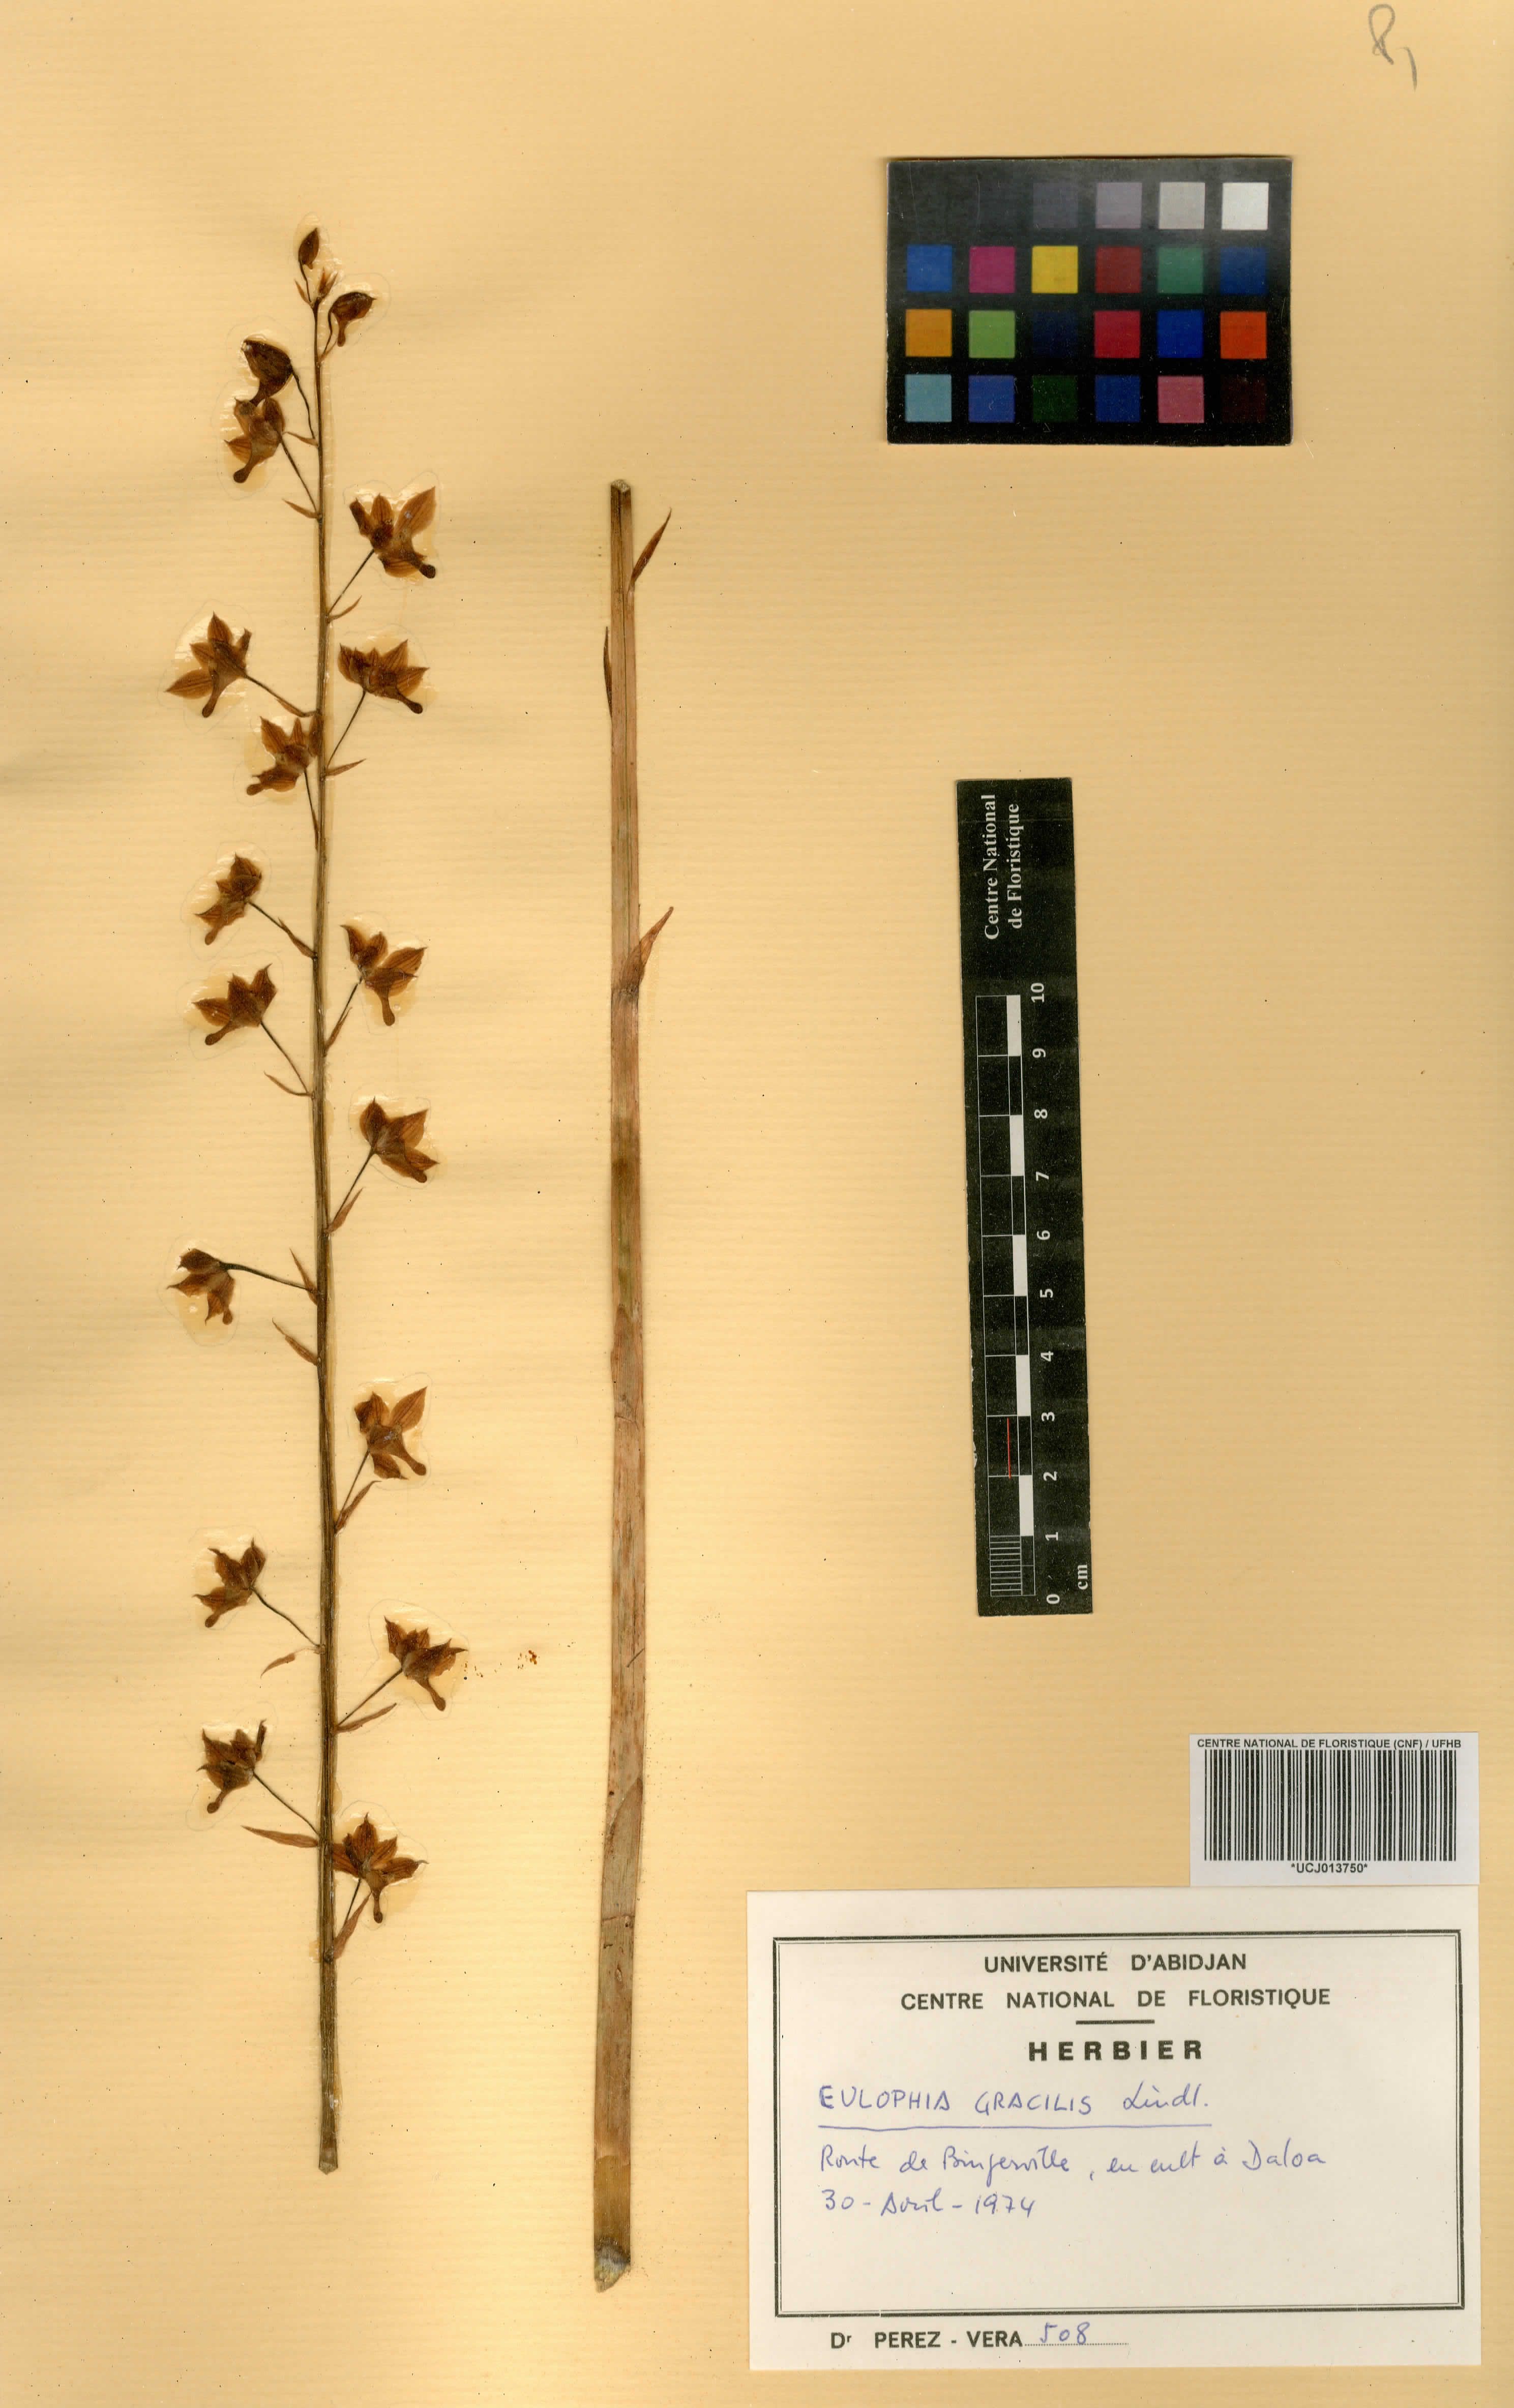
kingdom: Plantae
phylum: Tracheophyta
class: Liliopsida
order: Asparagales
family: Orchidaceae
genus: Eulophia
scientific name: Eulophia gracilis
